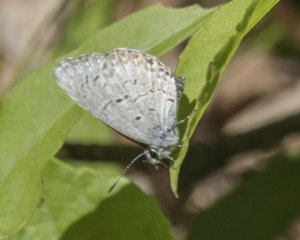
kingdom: Animalia
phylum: Arthropoda
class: Insecta
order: Lepidoptera
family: Lycaenidae
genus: Celastrina
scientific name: Celastrina lucia
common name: Northern Spring Azure
